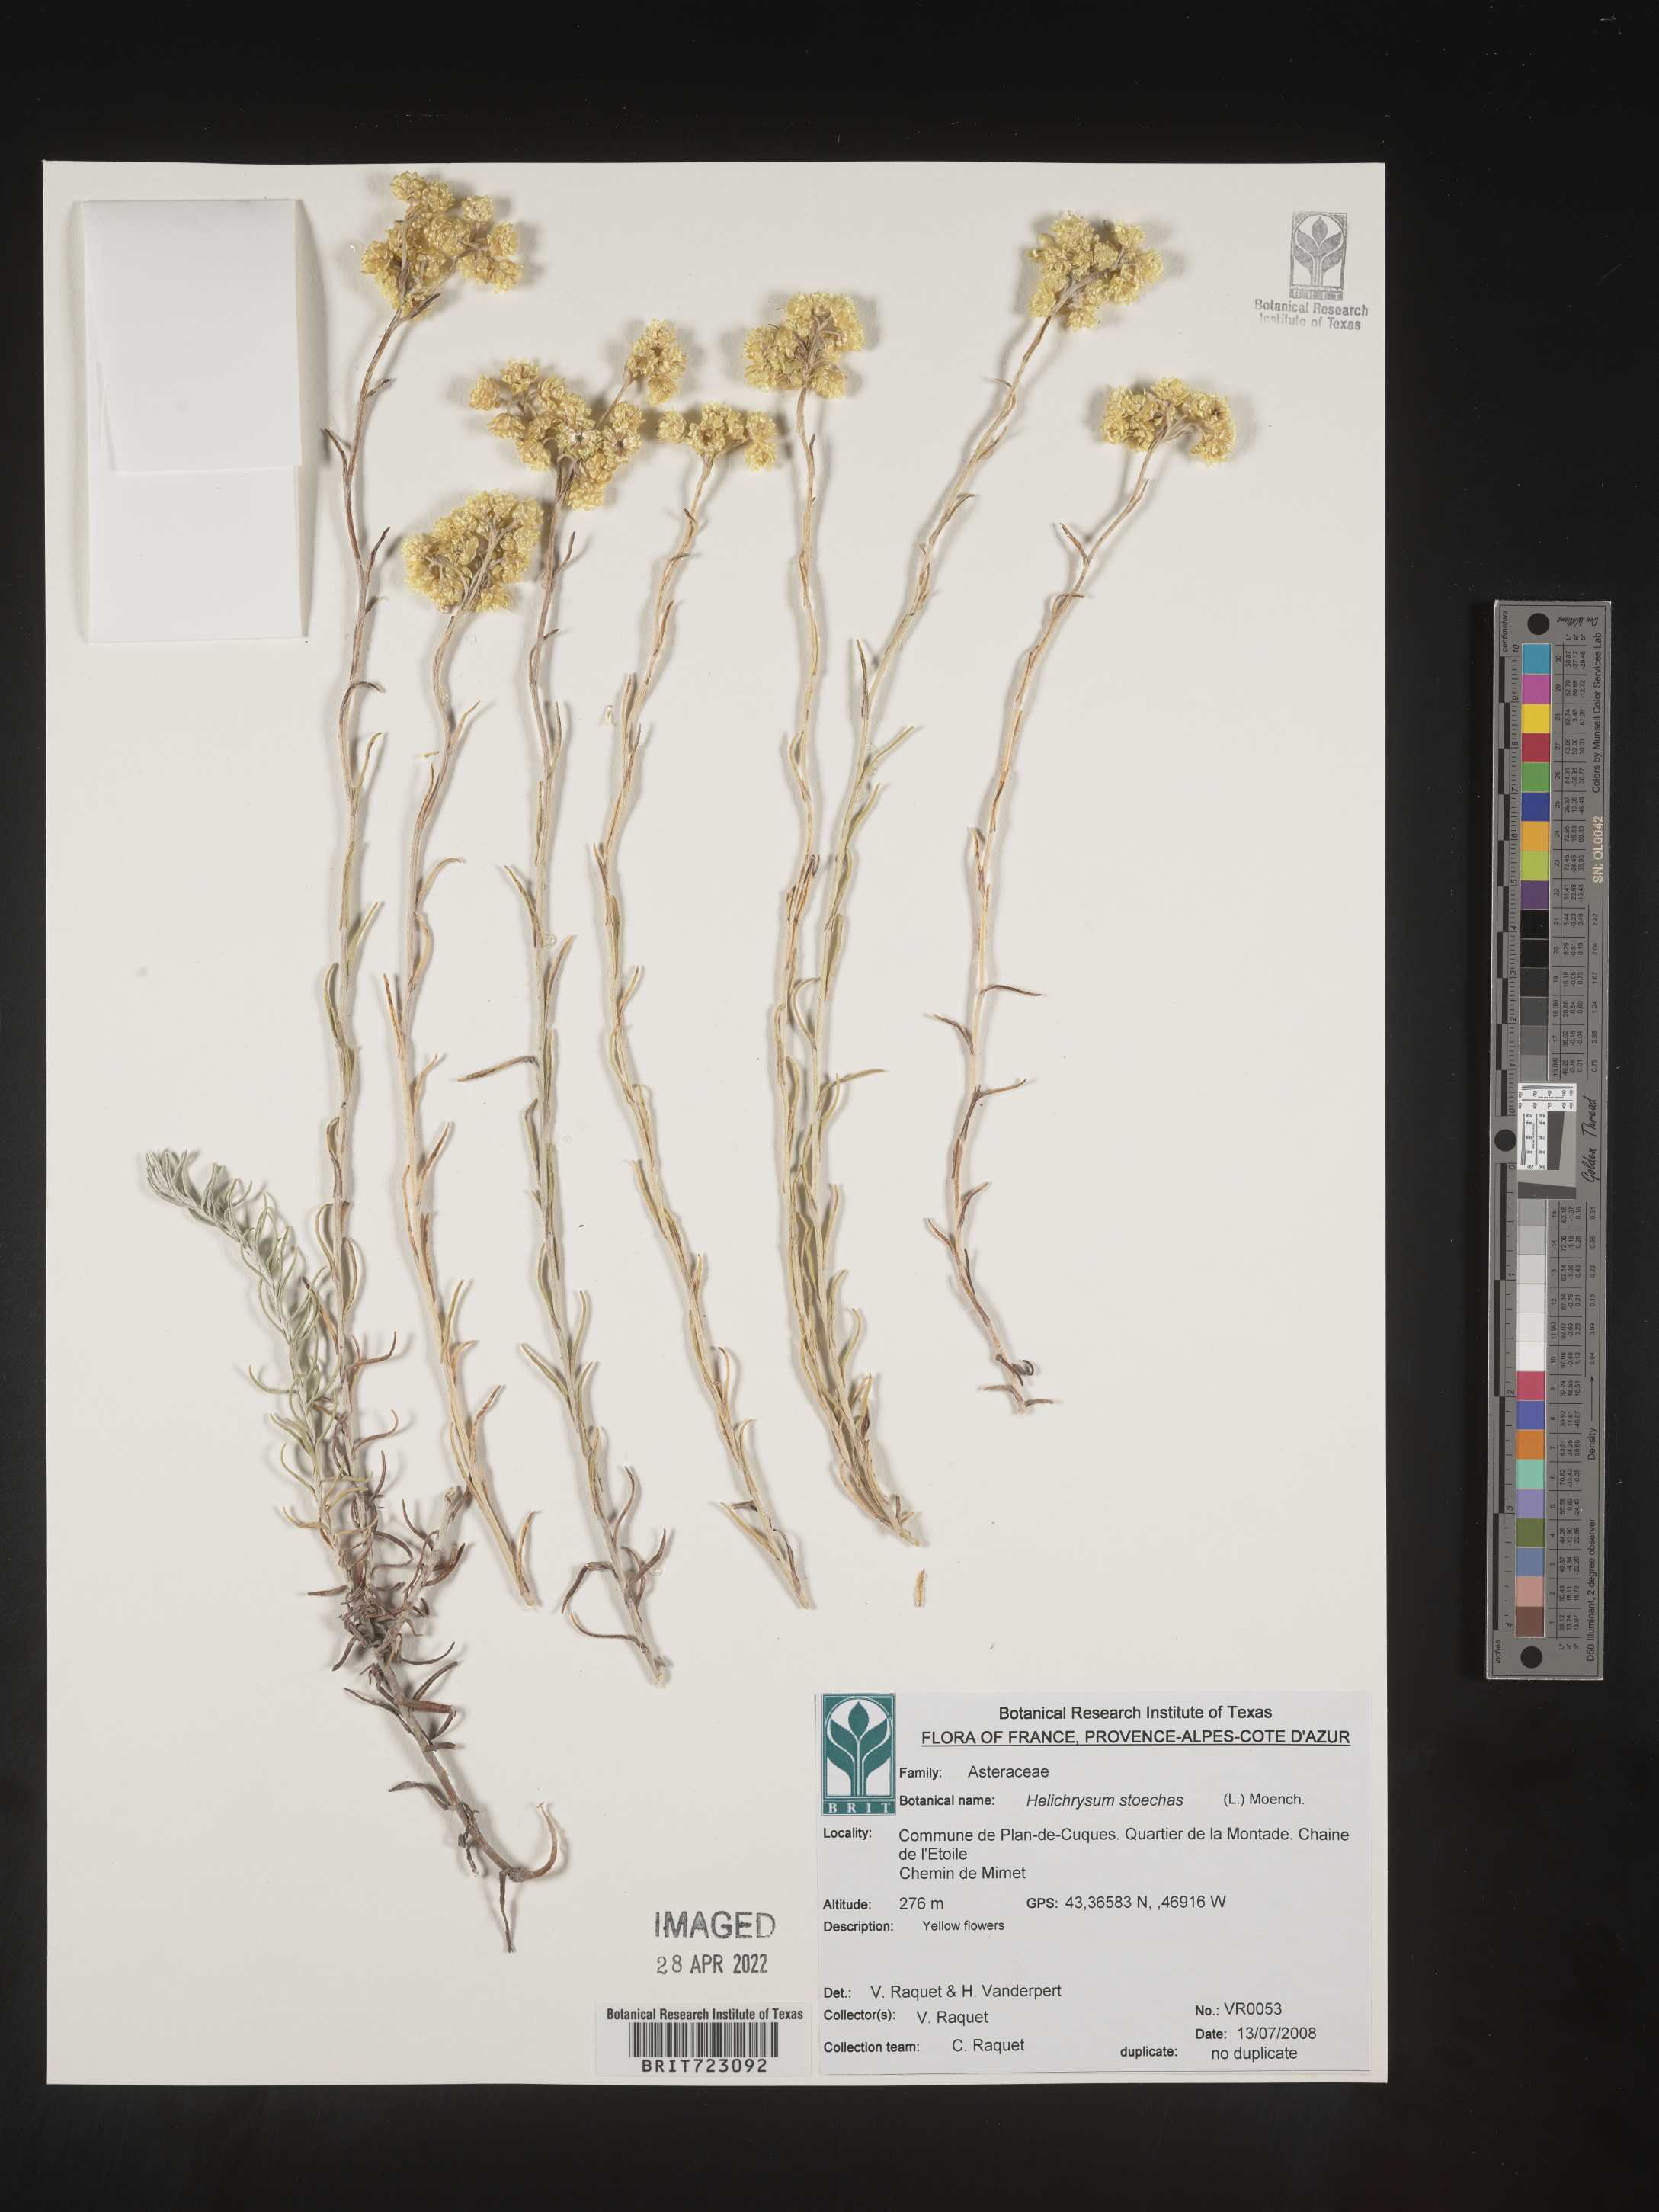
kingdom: Plantae
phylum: Tracheophyta
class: Magnoliopsida
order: Asterales
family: Asteraceae
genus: Helichrysum
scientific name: Helichrysum stoechas
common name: Goldilocks
